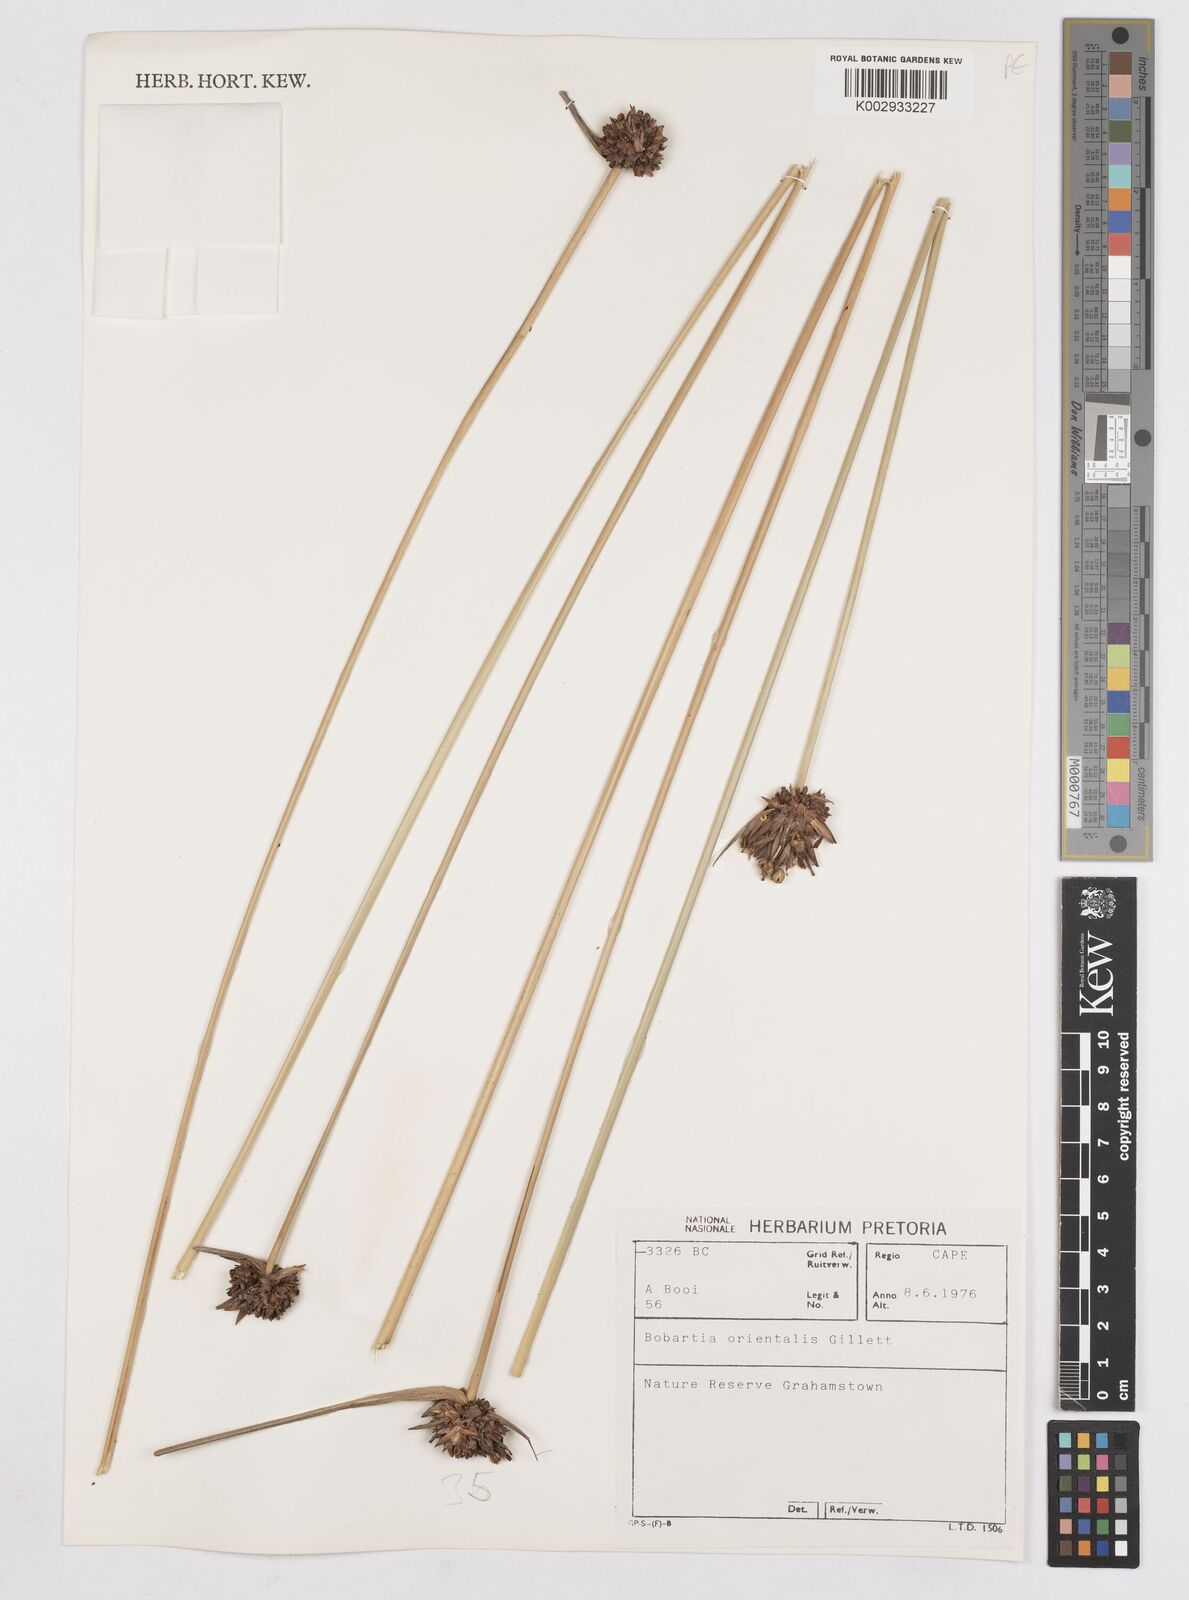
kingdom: Plantae
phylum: Tracheophyta
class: Liliopsida
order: Asparagales
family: Iridaceae
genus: Bobartia
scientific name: Bobartia orientalis
